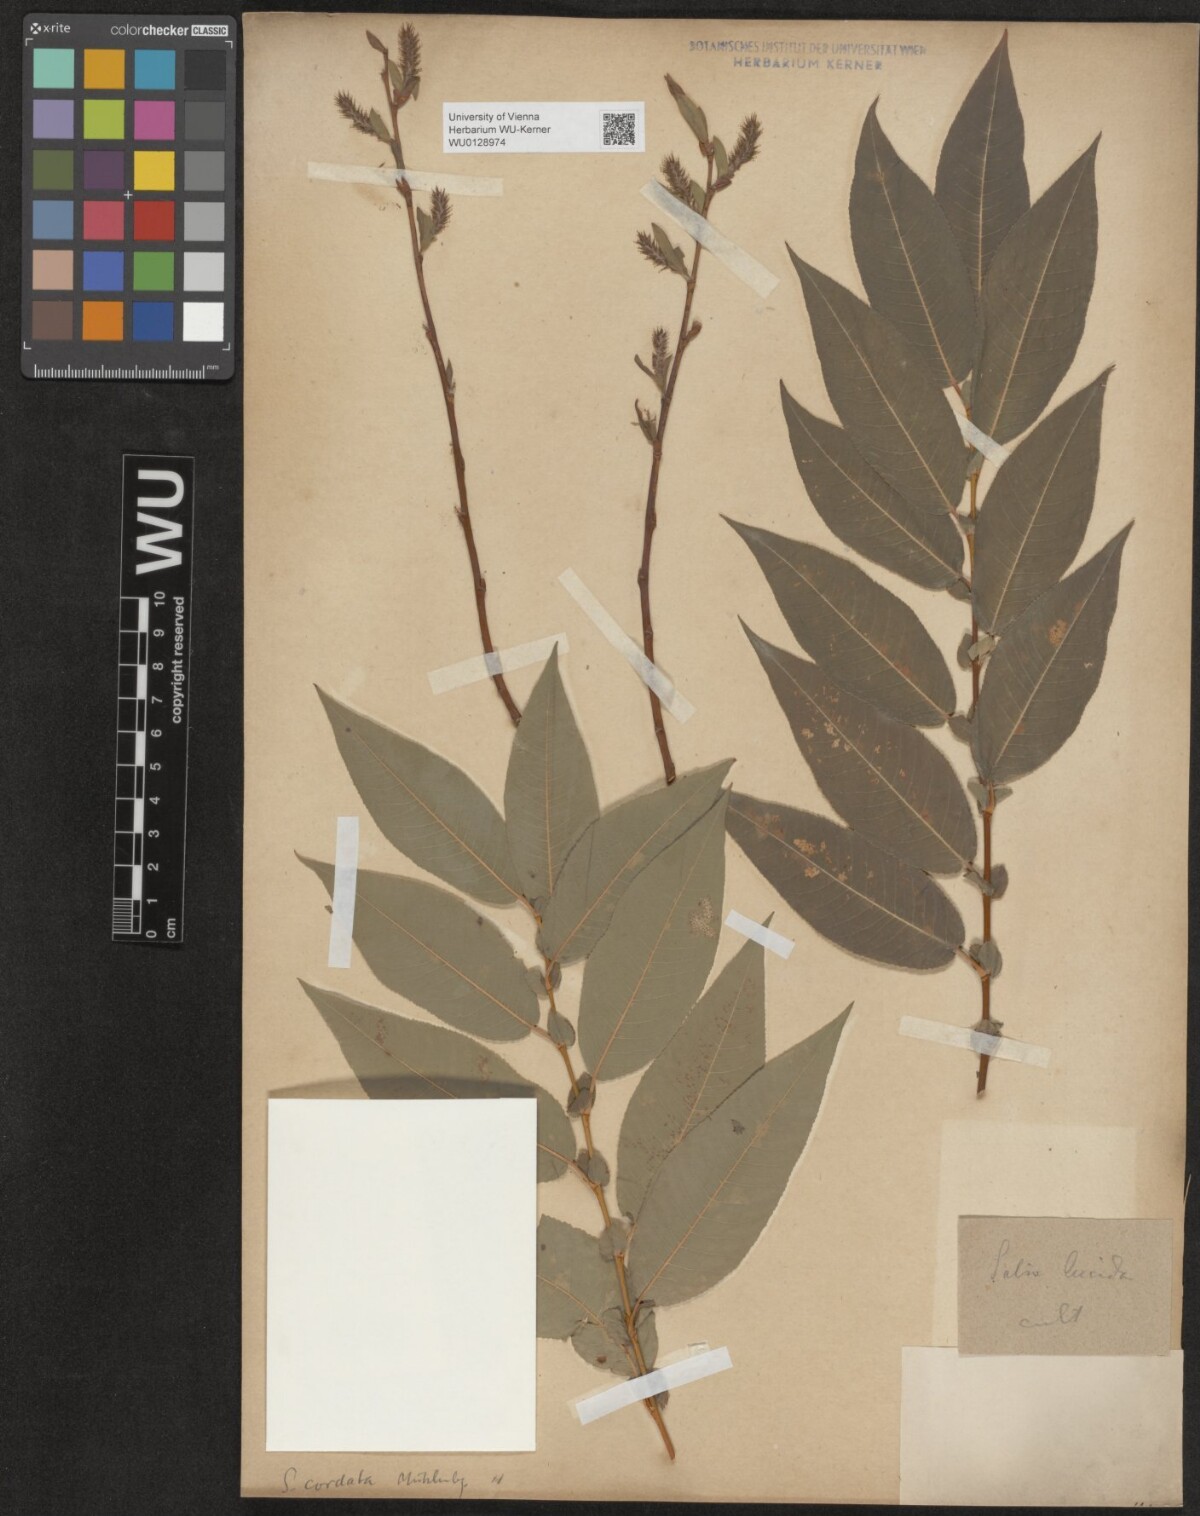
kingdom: Plantae
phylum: Tracheophyta
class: Magnoliopsida
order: Malpighiales
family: Salicaceae
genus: Salix
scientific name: Salix lanata
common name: Woolly willow
